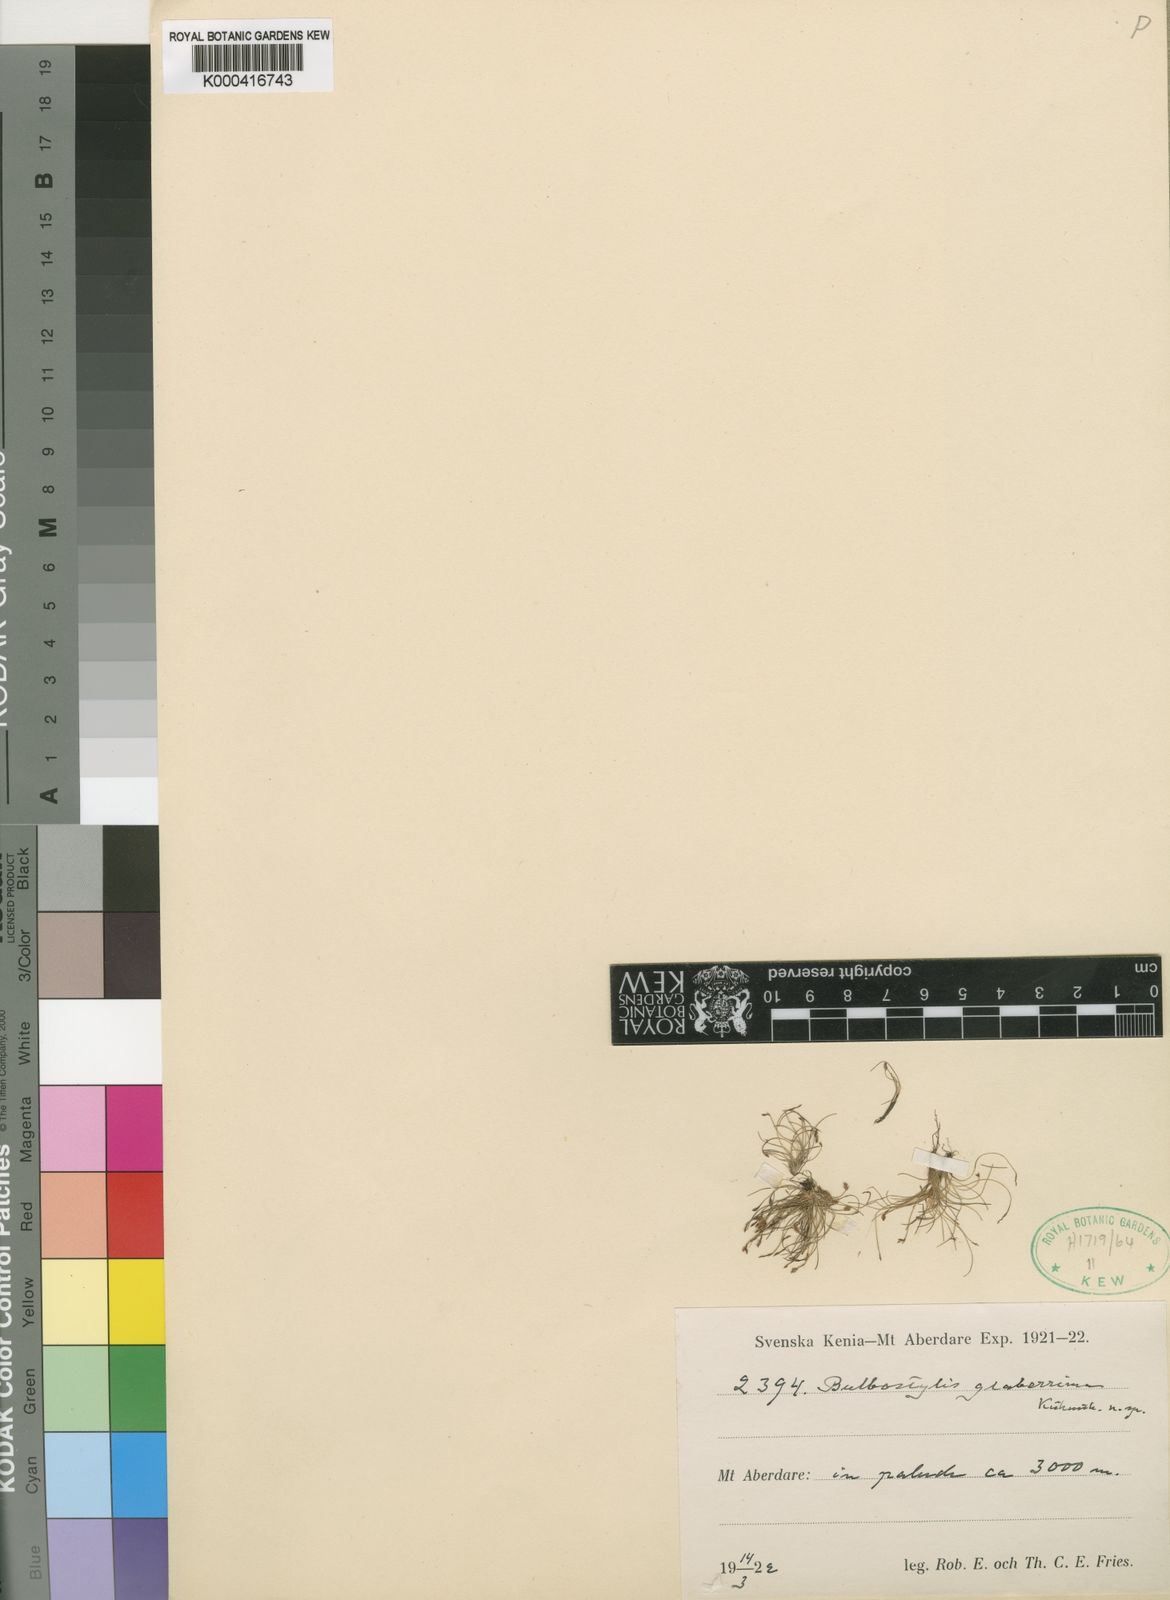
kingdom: Plantae
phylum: Tracheophyta
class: Liliopsida
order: Poales
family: Cyperaceae
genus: Bulbostylis
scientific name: Bulbostylis
